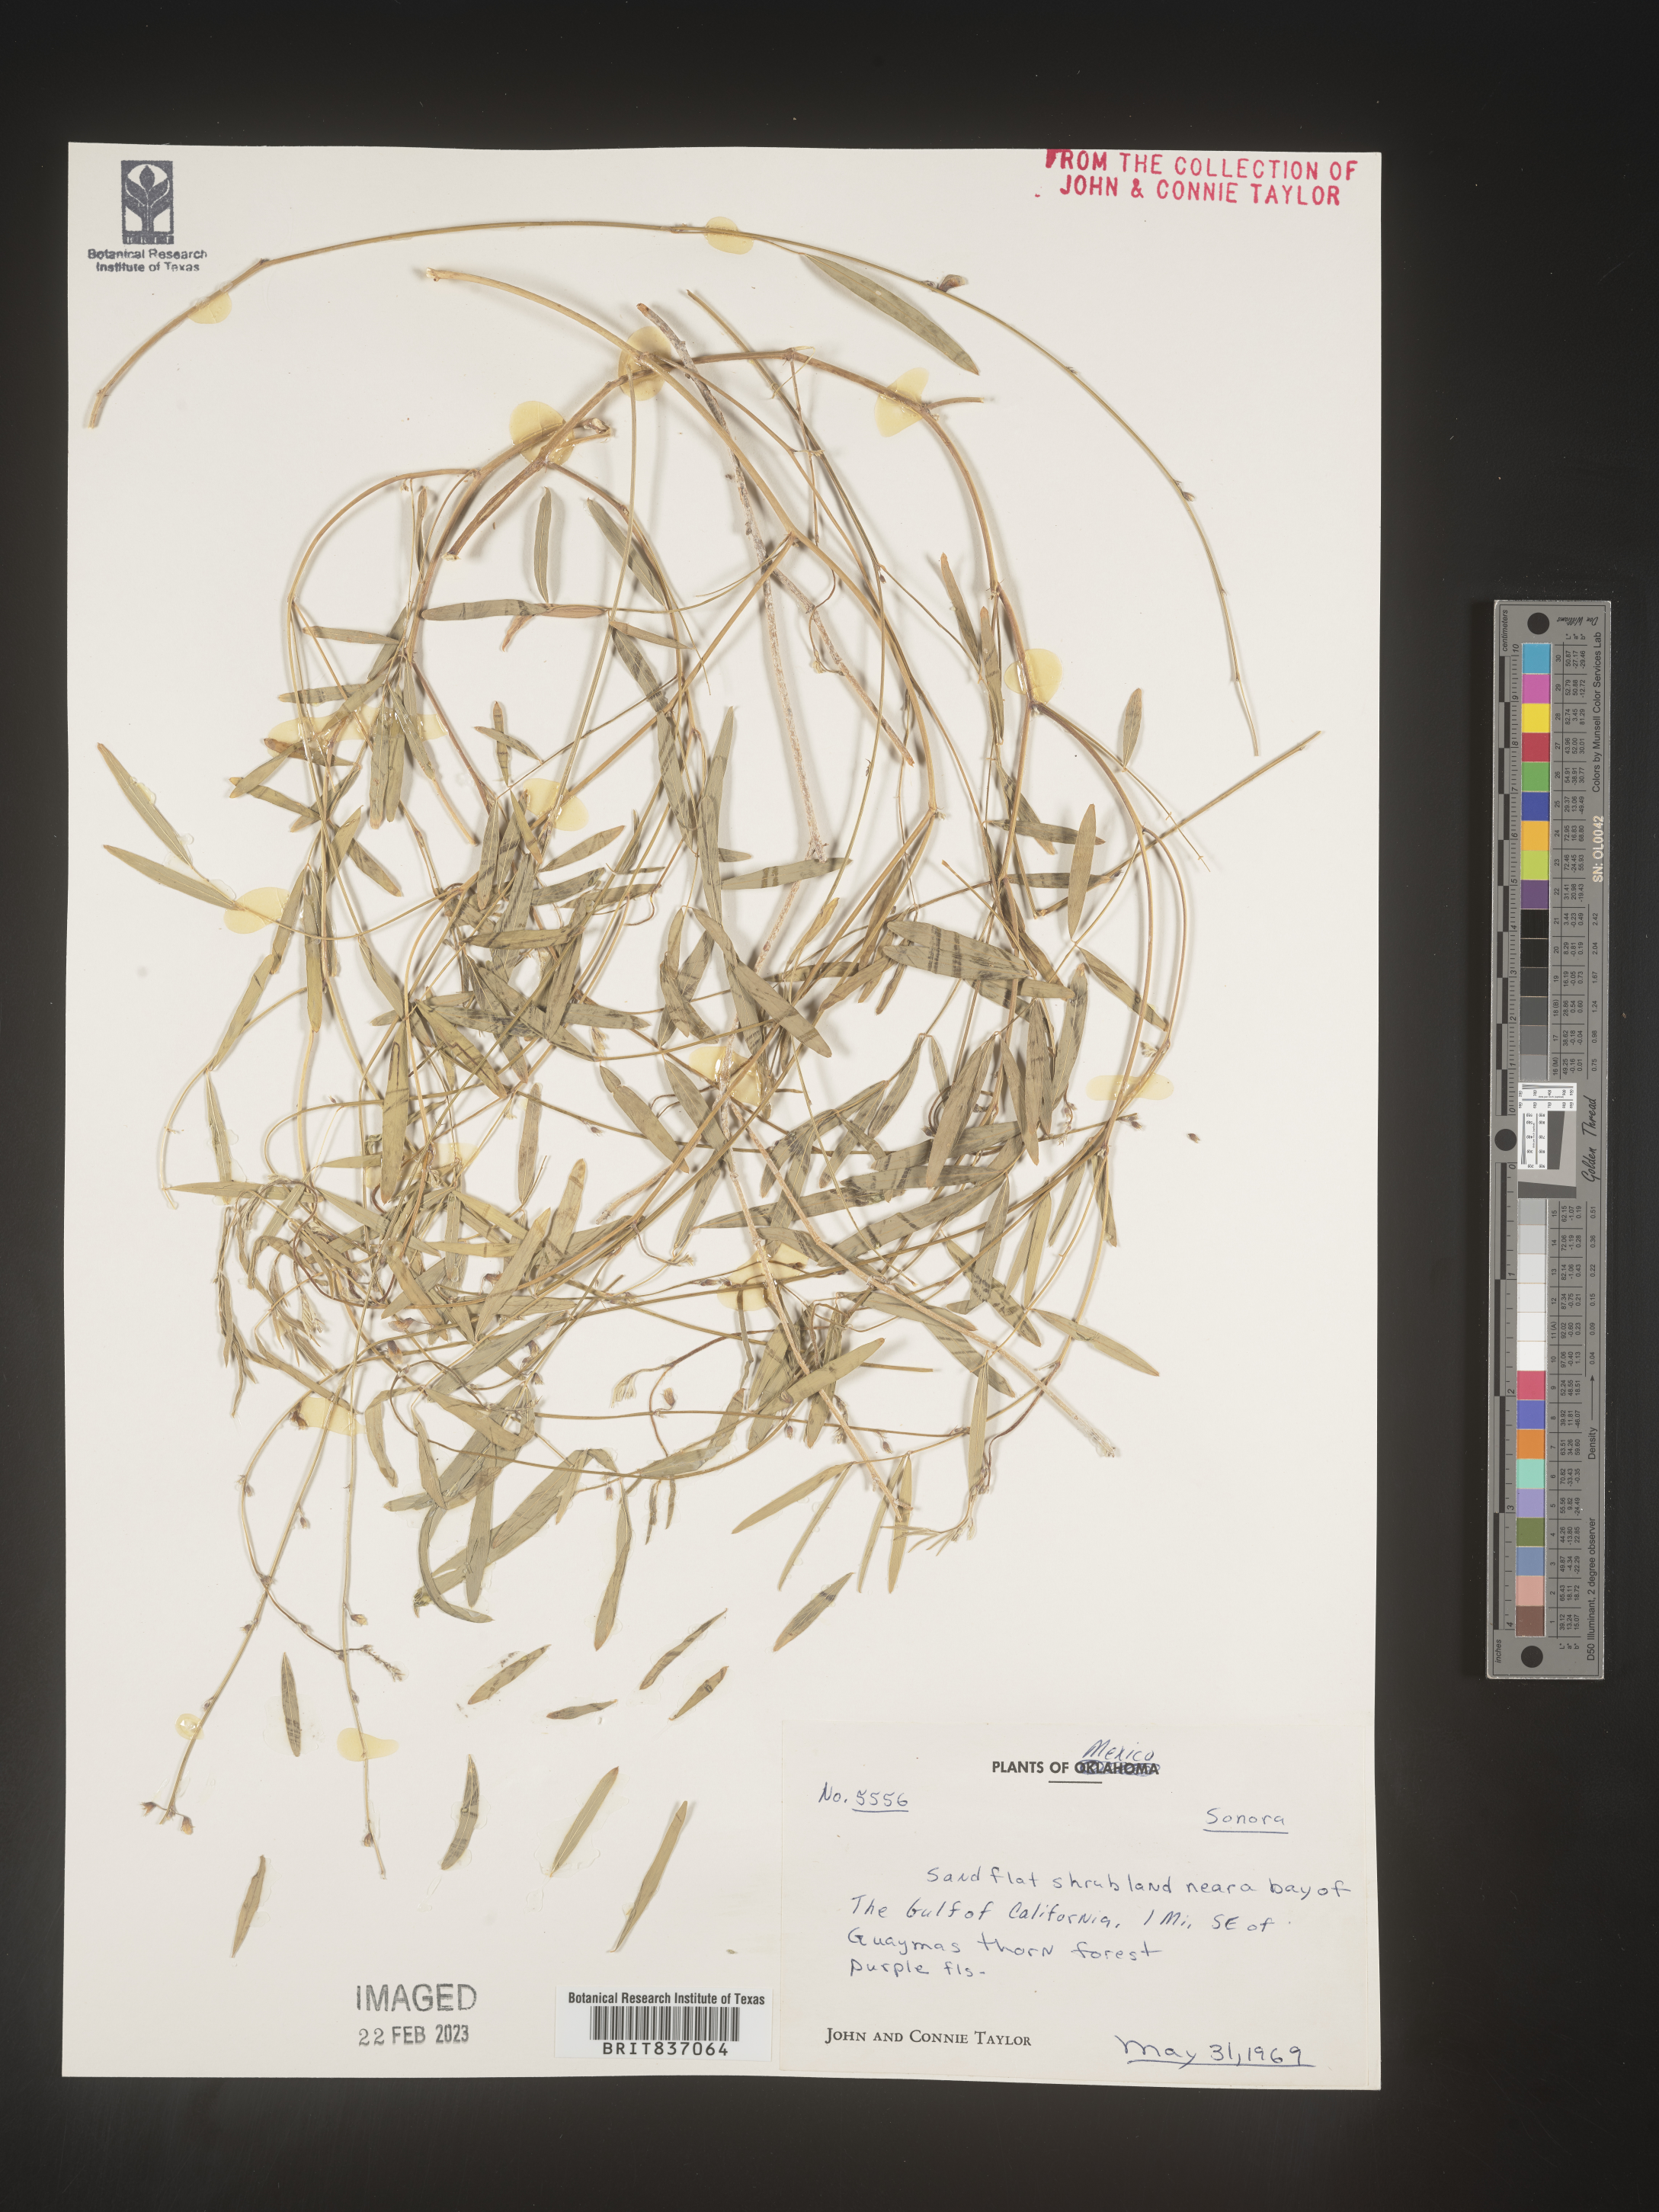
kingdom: Plantae
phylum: Tracheophyta
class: Magnoliopsida
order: Fabales
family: Fabaceae
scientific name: Fabaceae
